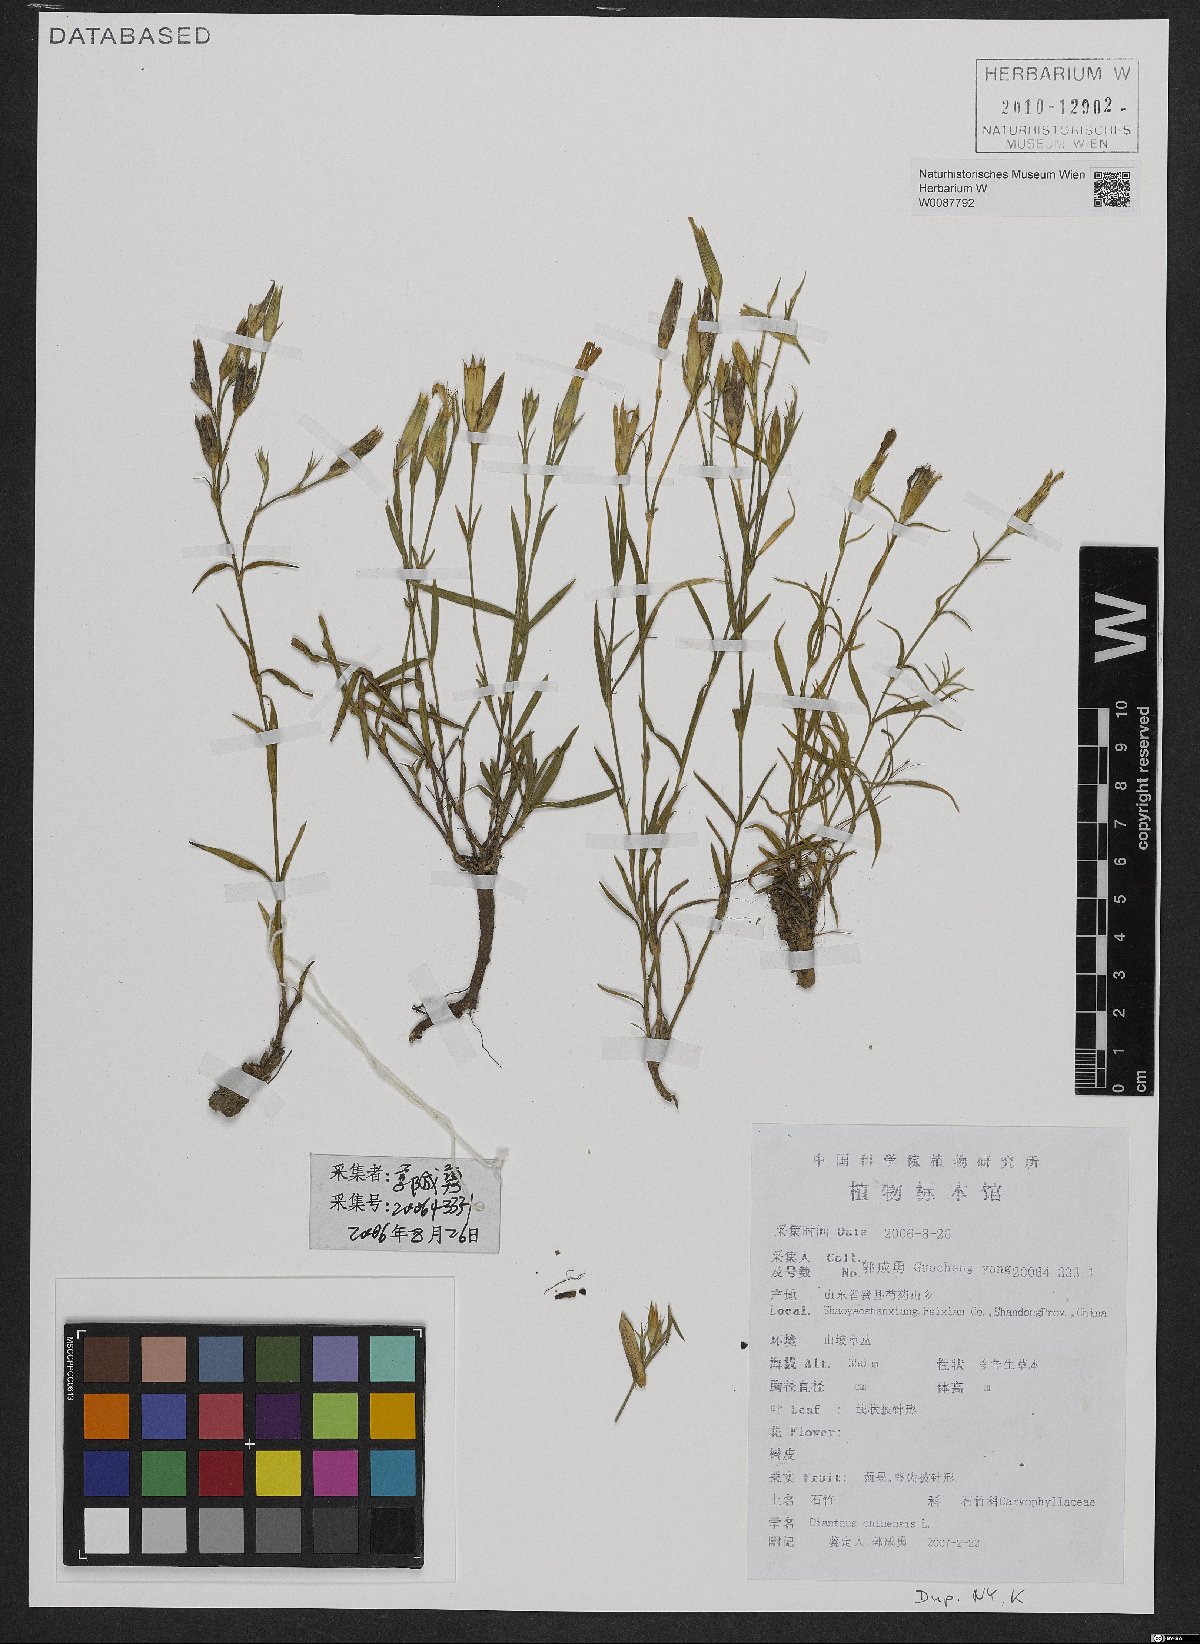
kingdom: Plantae
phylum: Tracheophyta
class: Magnoliopsida
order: Caryophyllales
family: Caryophyllaceae
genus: Dianthus
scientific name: Dianthus chinensis
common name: Rainbow pink
